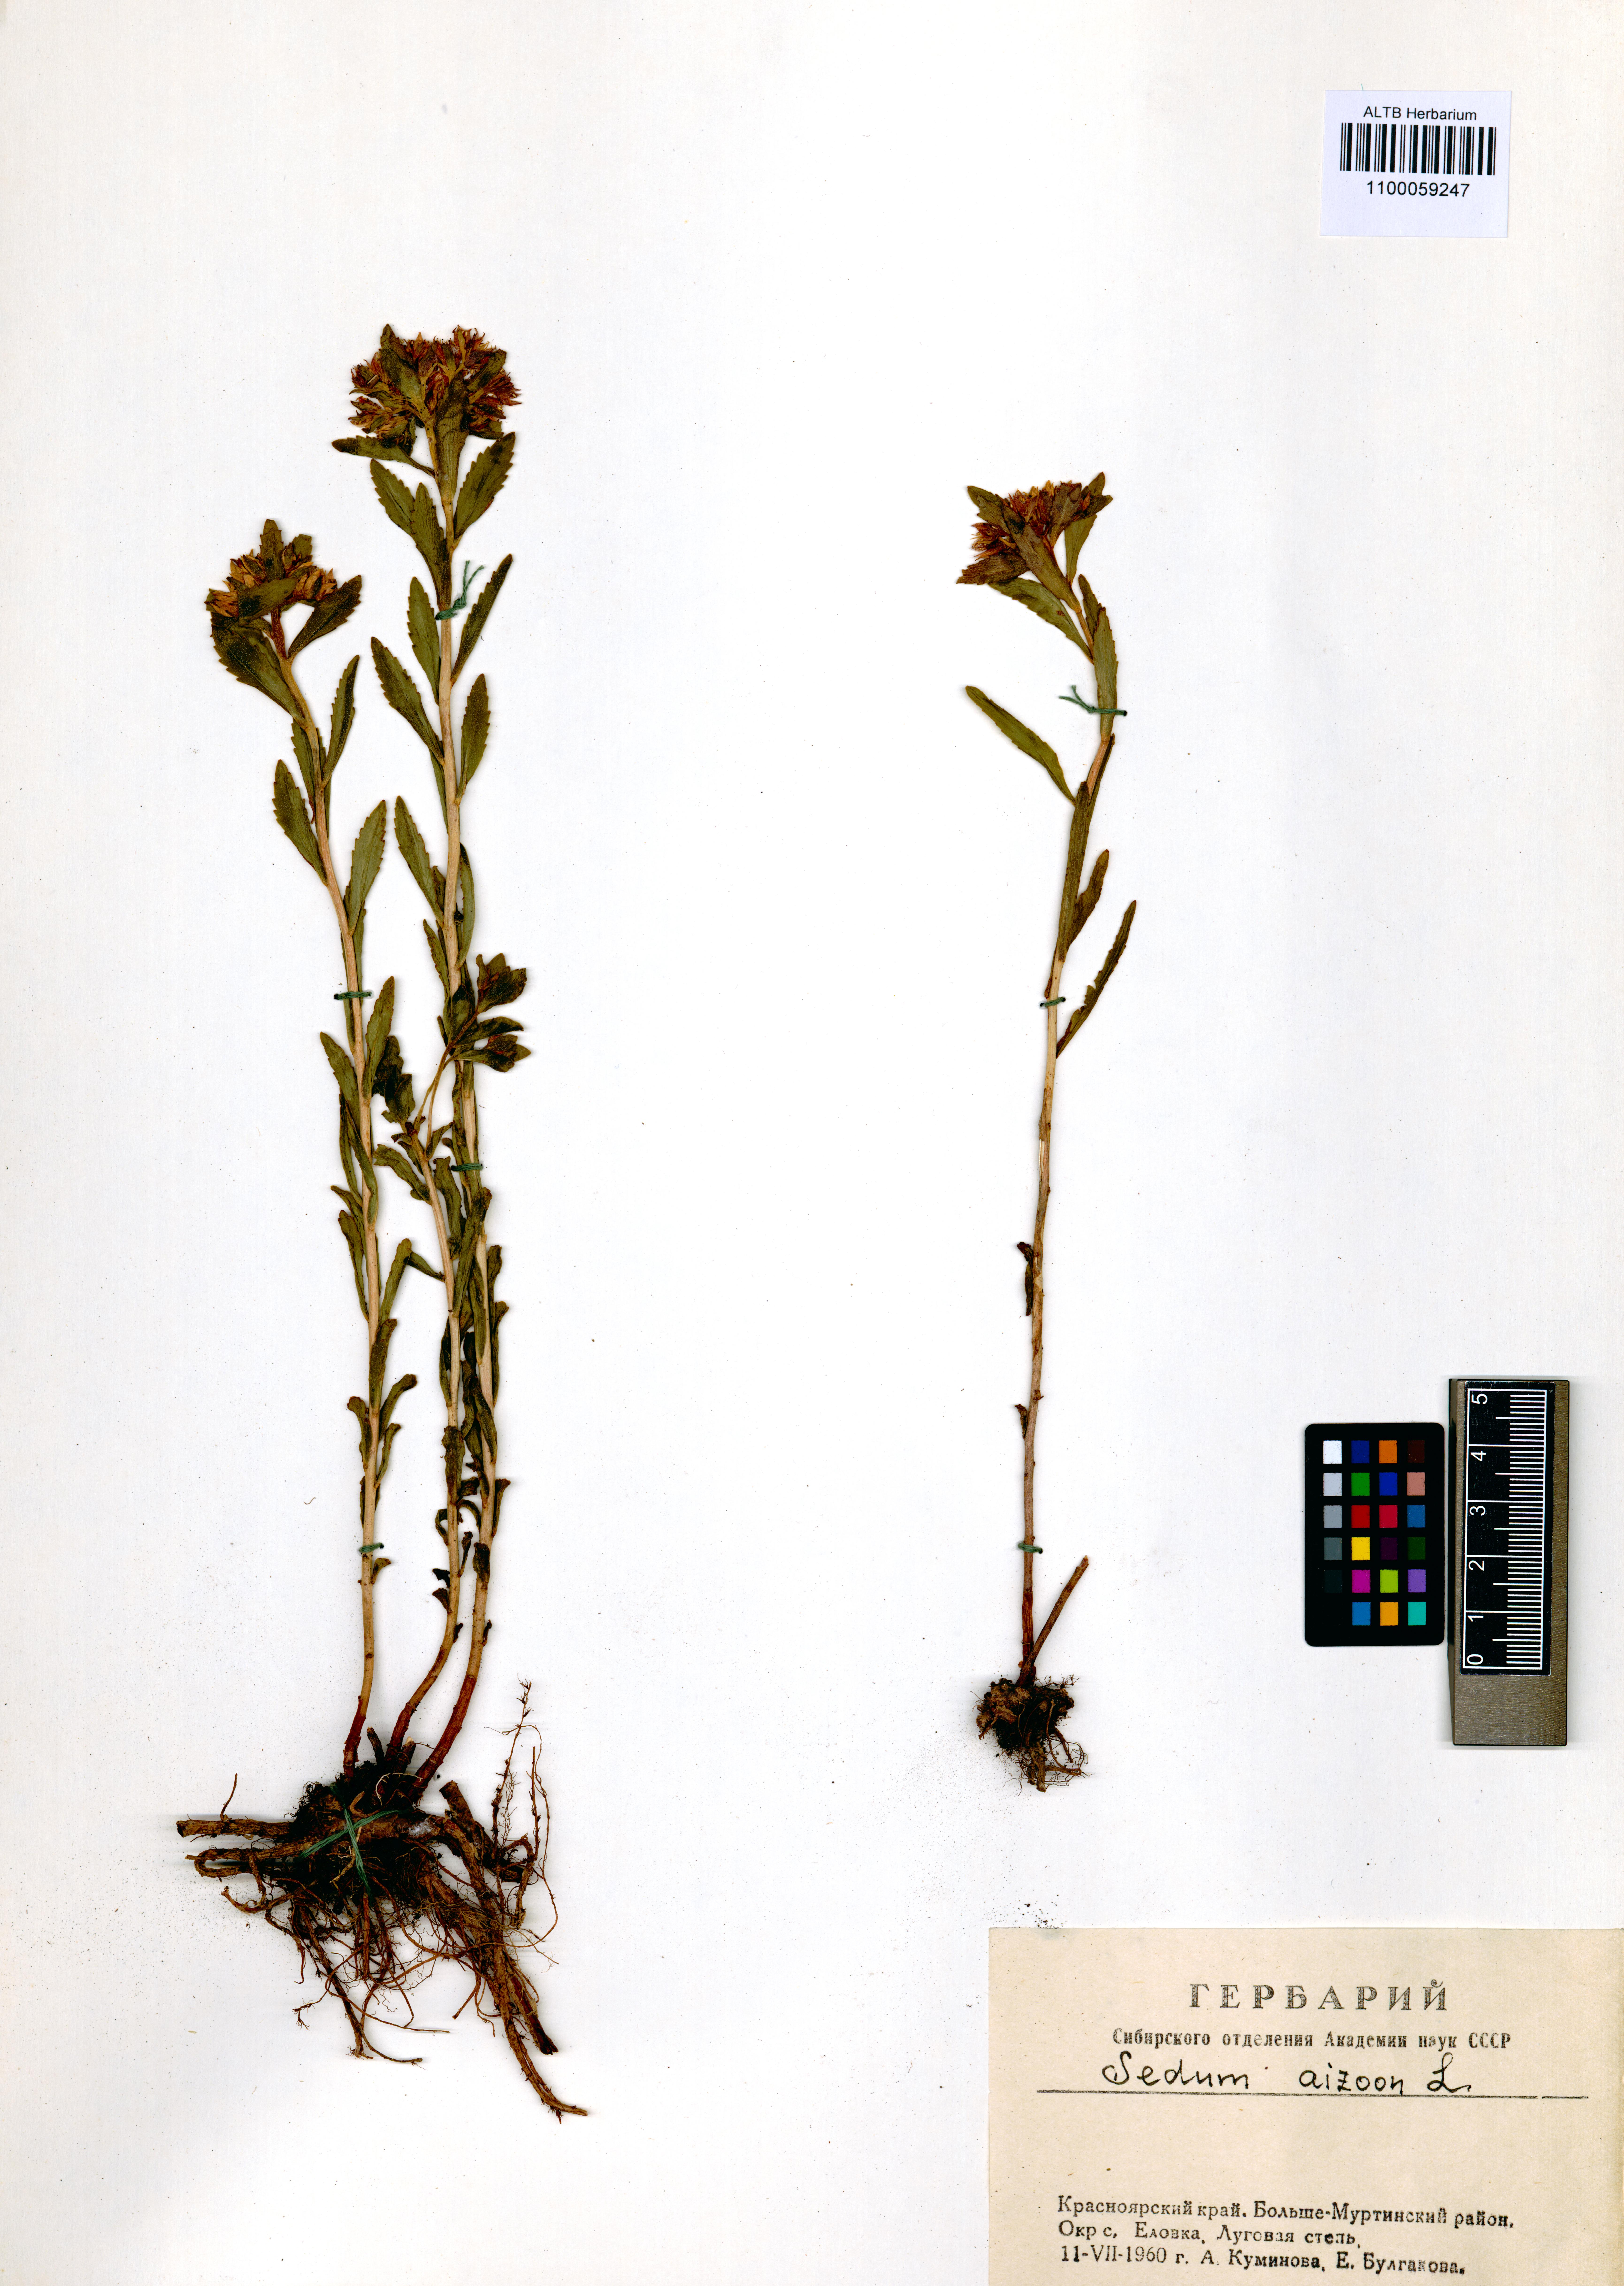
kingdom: Plantae
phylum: Tracheophyta
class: Magnoliopsida
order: Saxifragales
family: Crassulaceae
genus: Phedimus
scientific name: Phedimus aizoon
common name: Orpin aizoon
